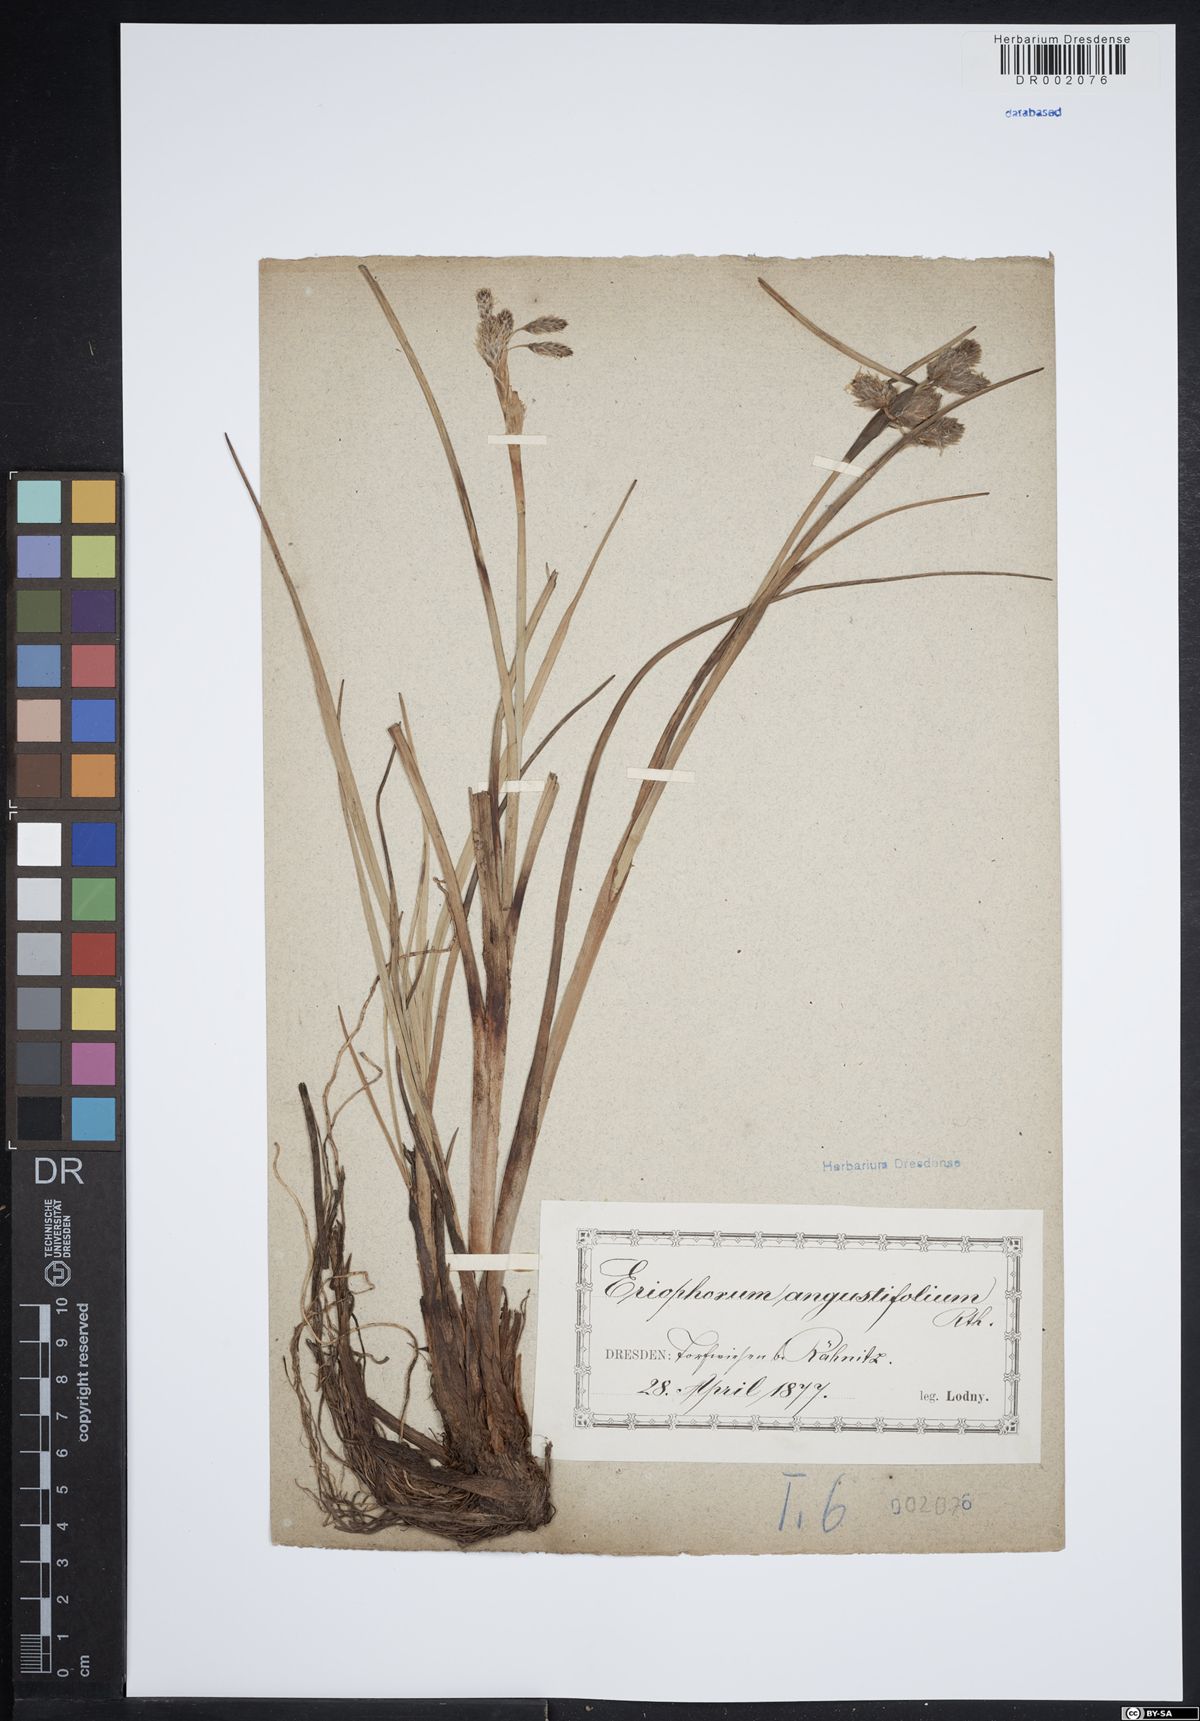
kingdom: Plantae
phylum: Tracheophyta
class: Liliopsida
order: Poales
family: Cyperaceae
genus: Eriophorum
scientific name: Eriophorum angustifolium
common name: Common cottongrass
